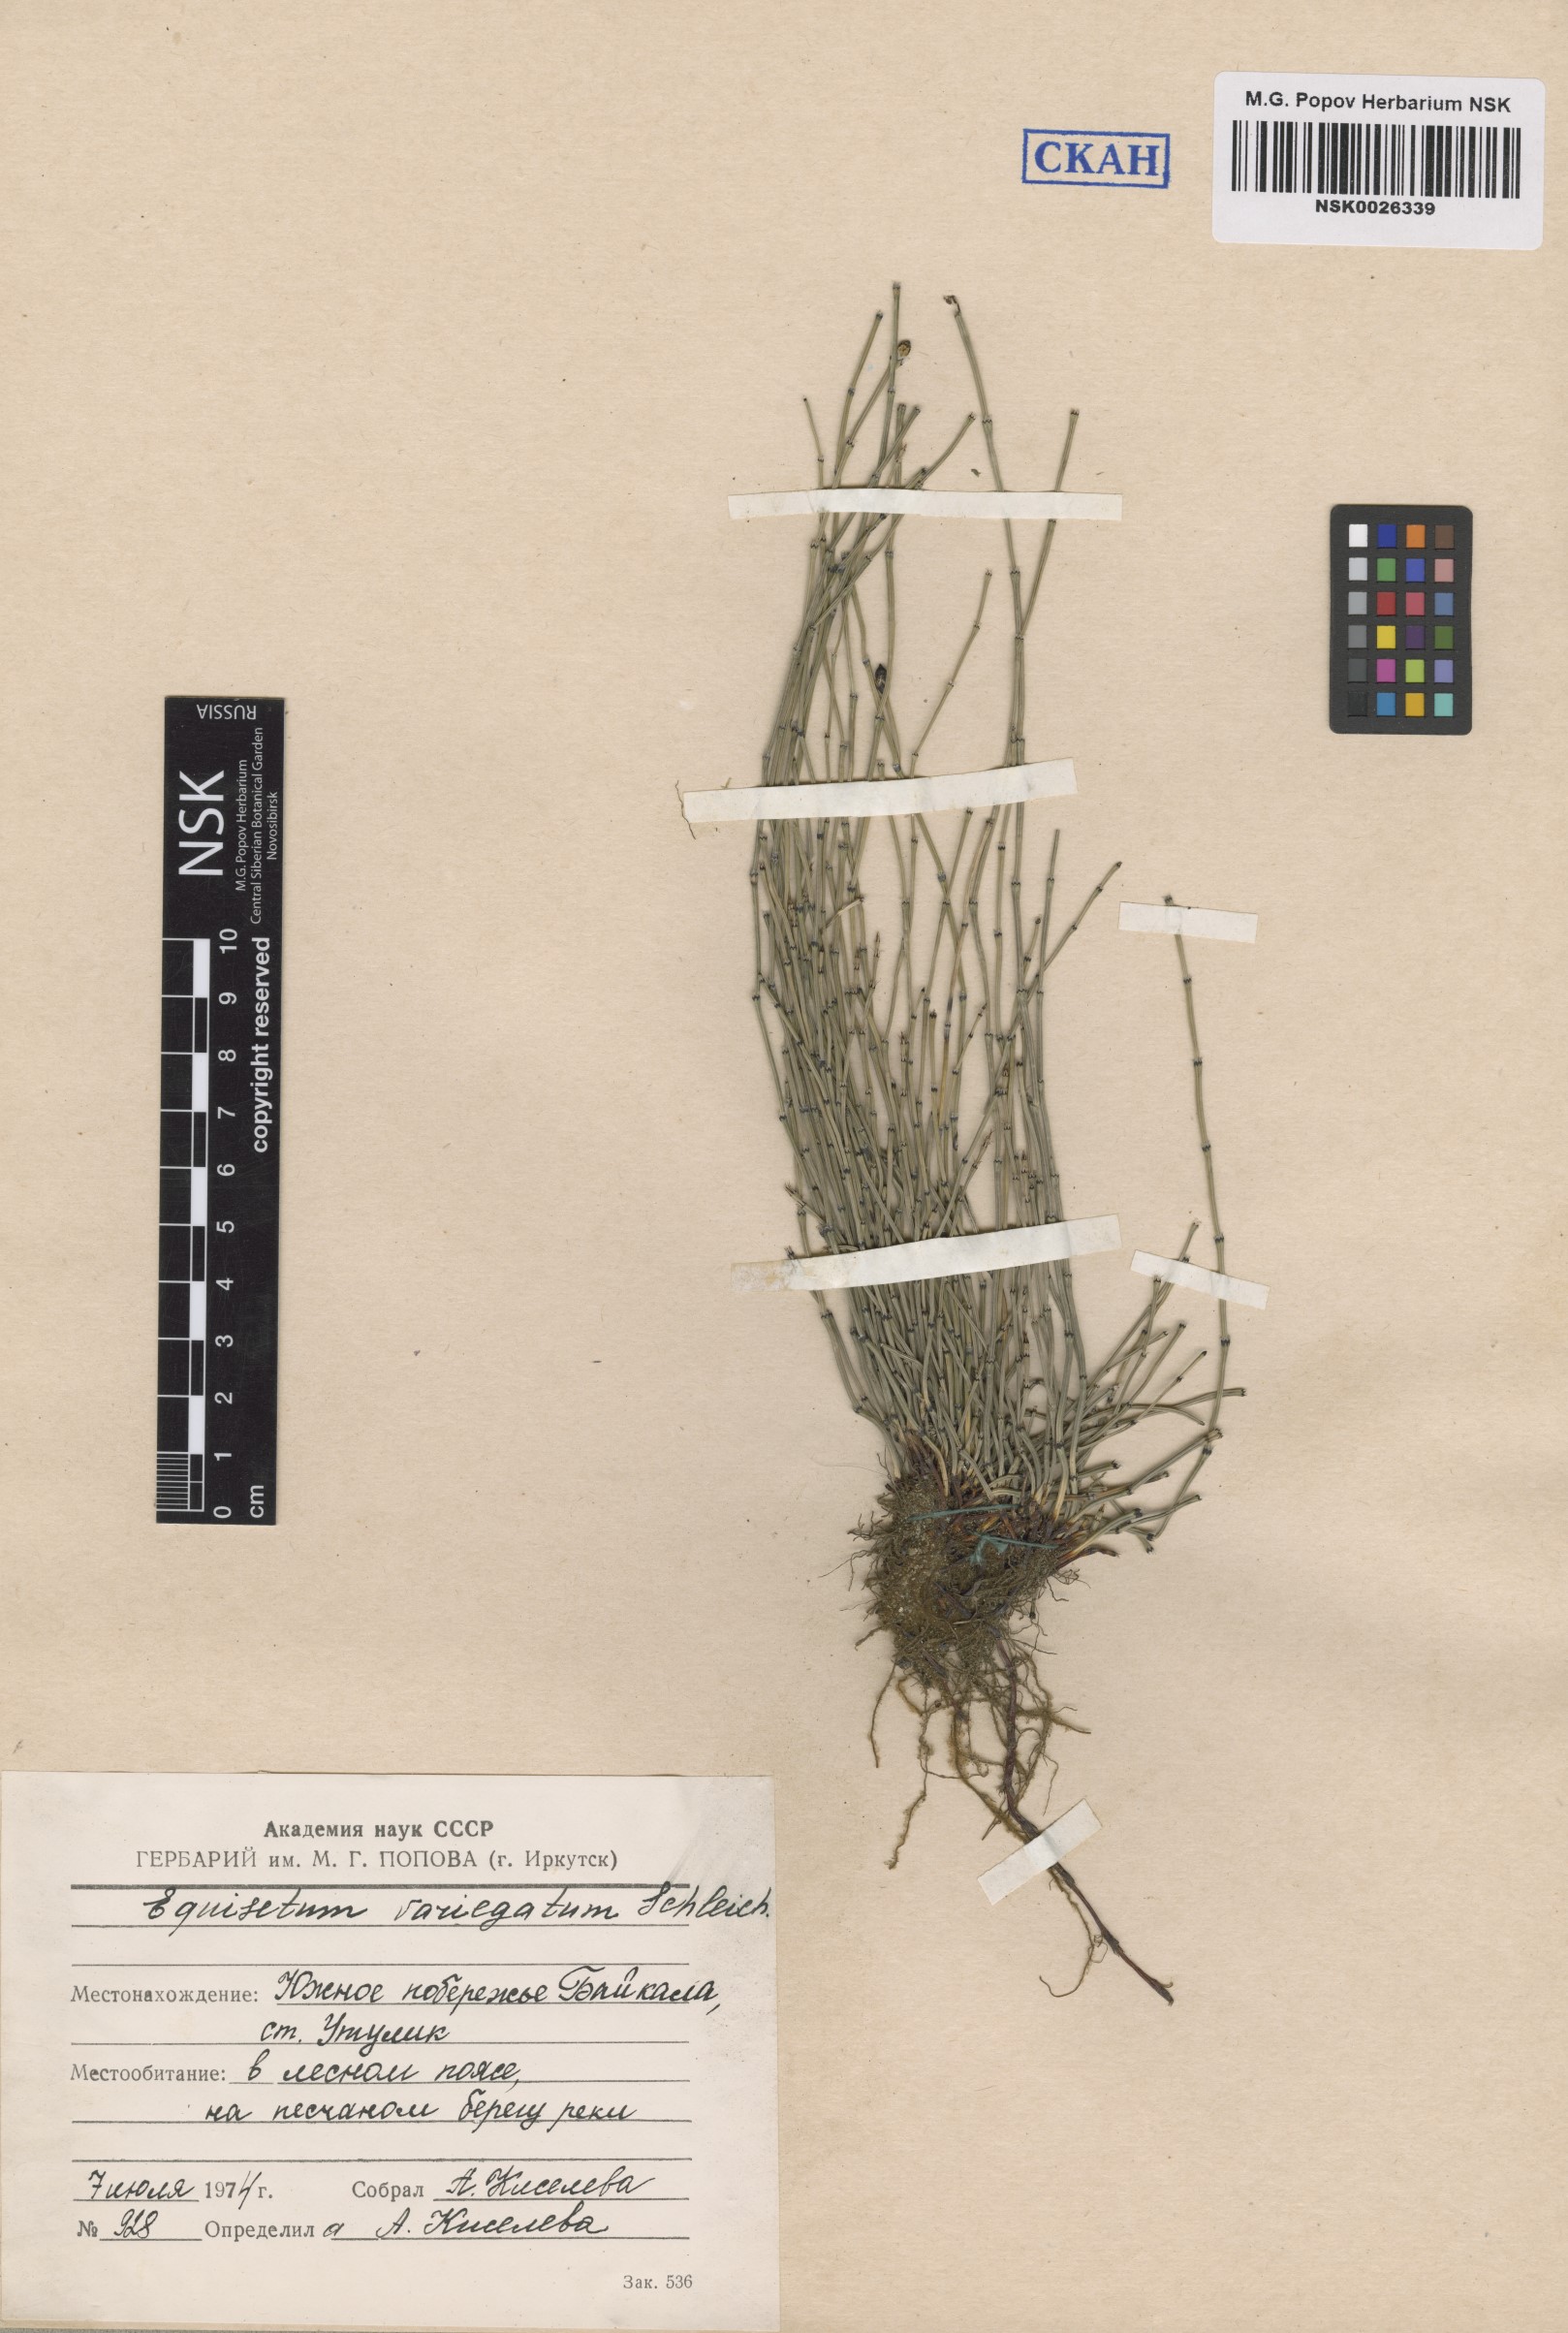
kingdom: Plantae
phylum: Tracheophyta
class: Polypodiopsida
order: Equisetales
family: Equisetaceae
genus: Equisetum
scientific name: Equisetum variegatum
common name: Variegated horsetail
